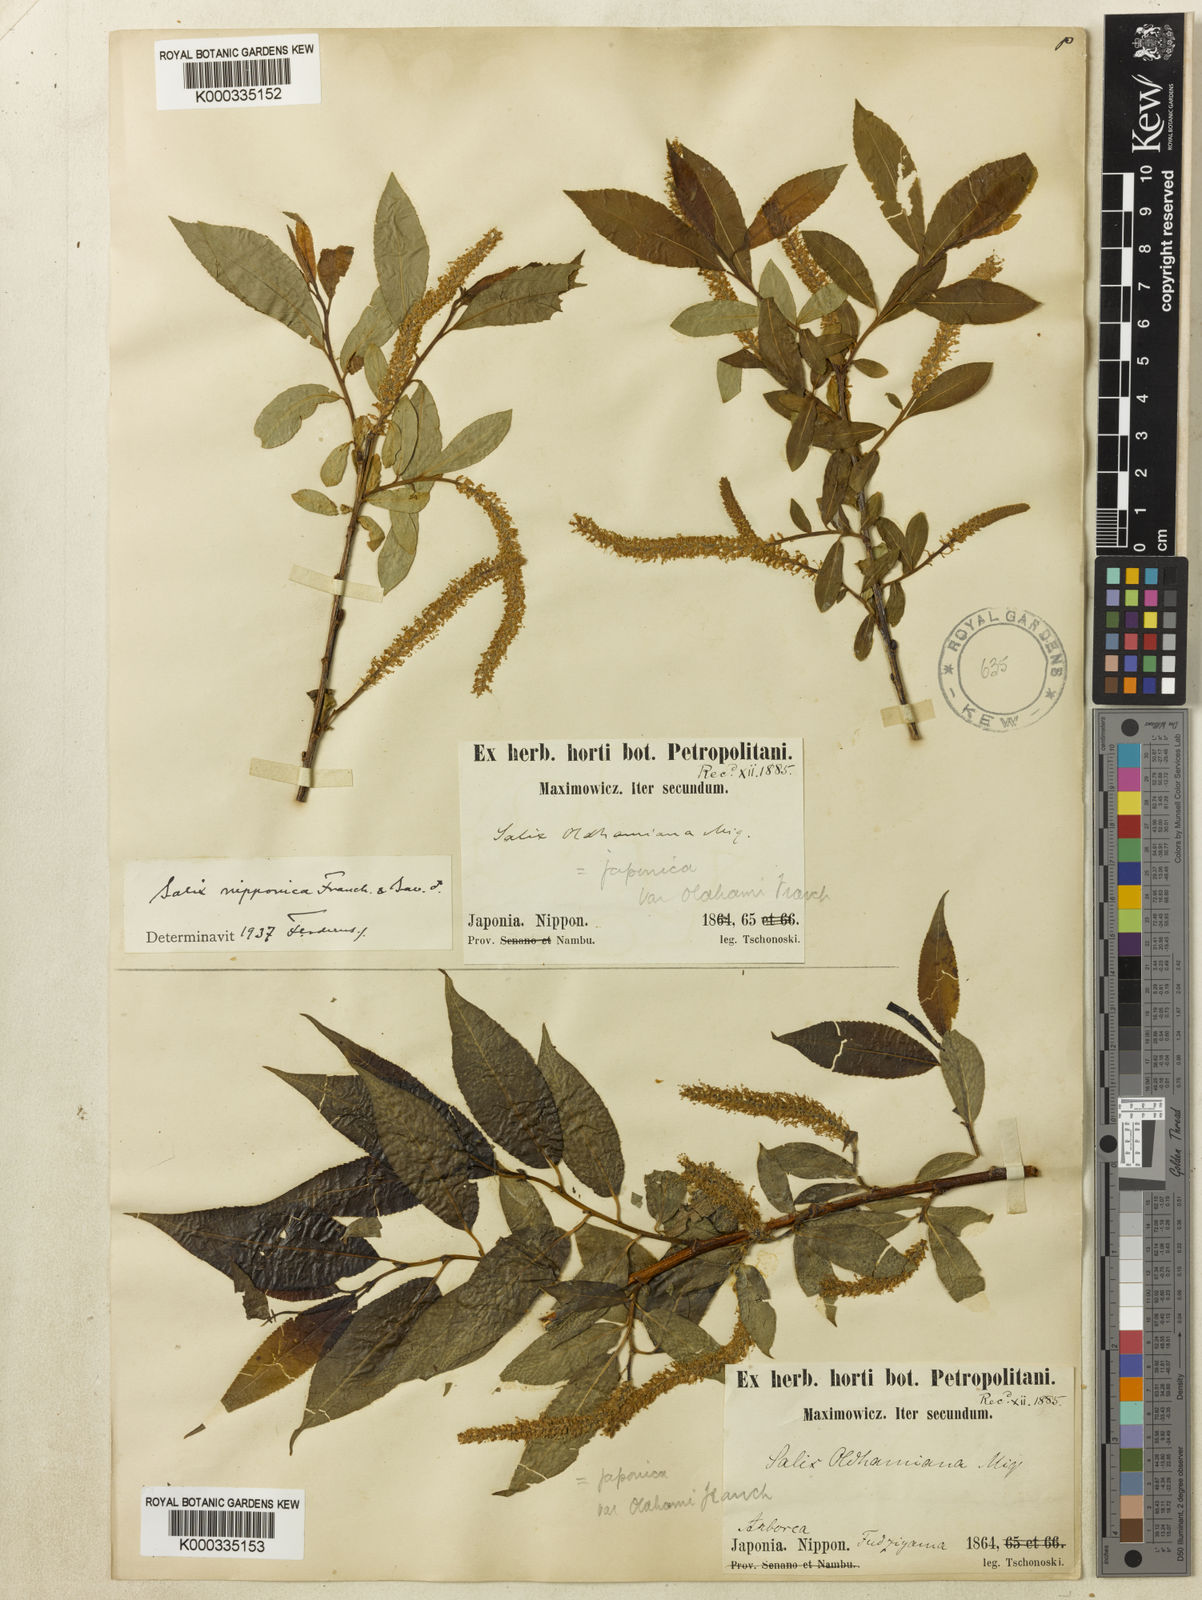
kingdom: Plantae
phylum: Tracheophyta
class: Magnoliopsida
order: Malpighiales
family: Salicaceae
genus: Salix
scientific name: Salix triandra
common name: Almond willow
